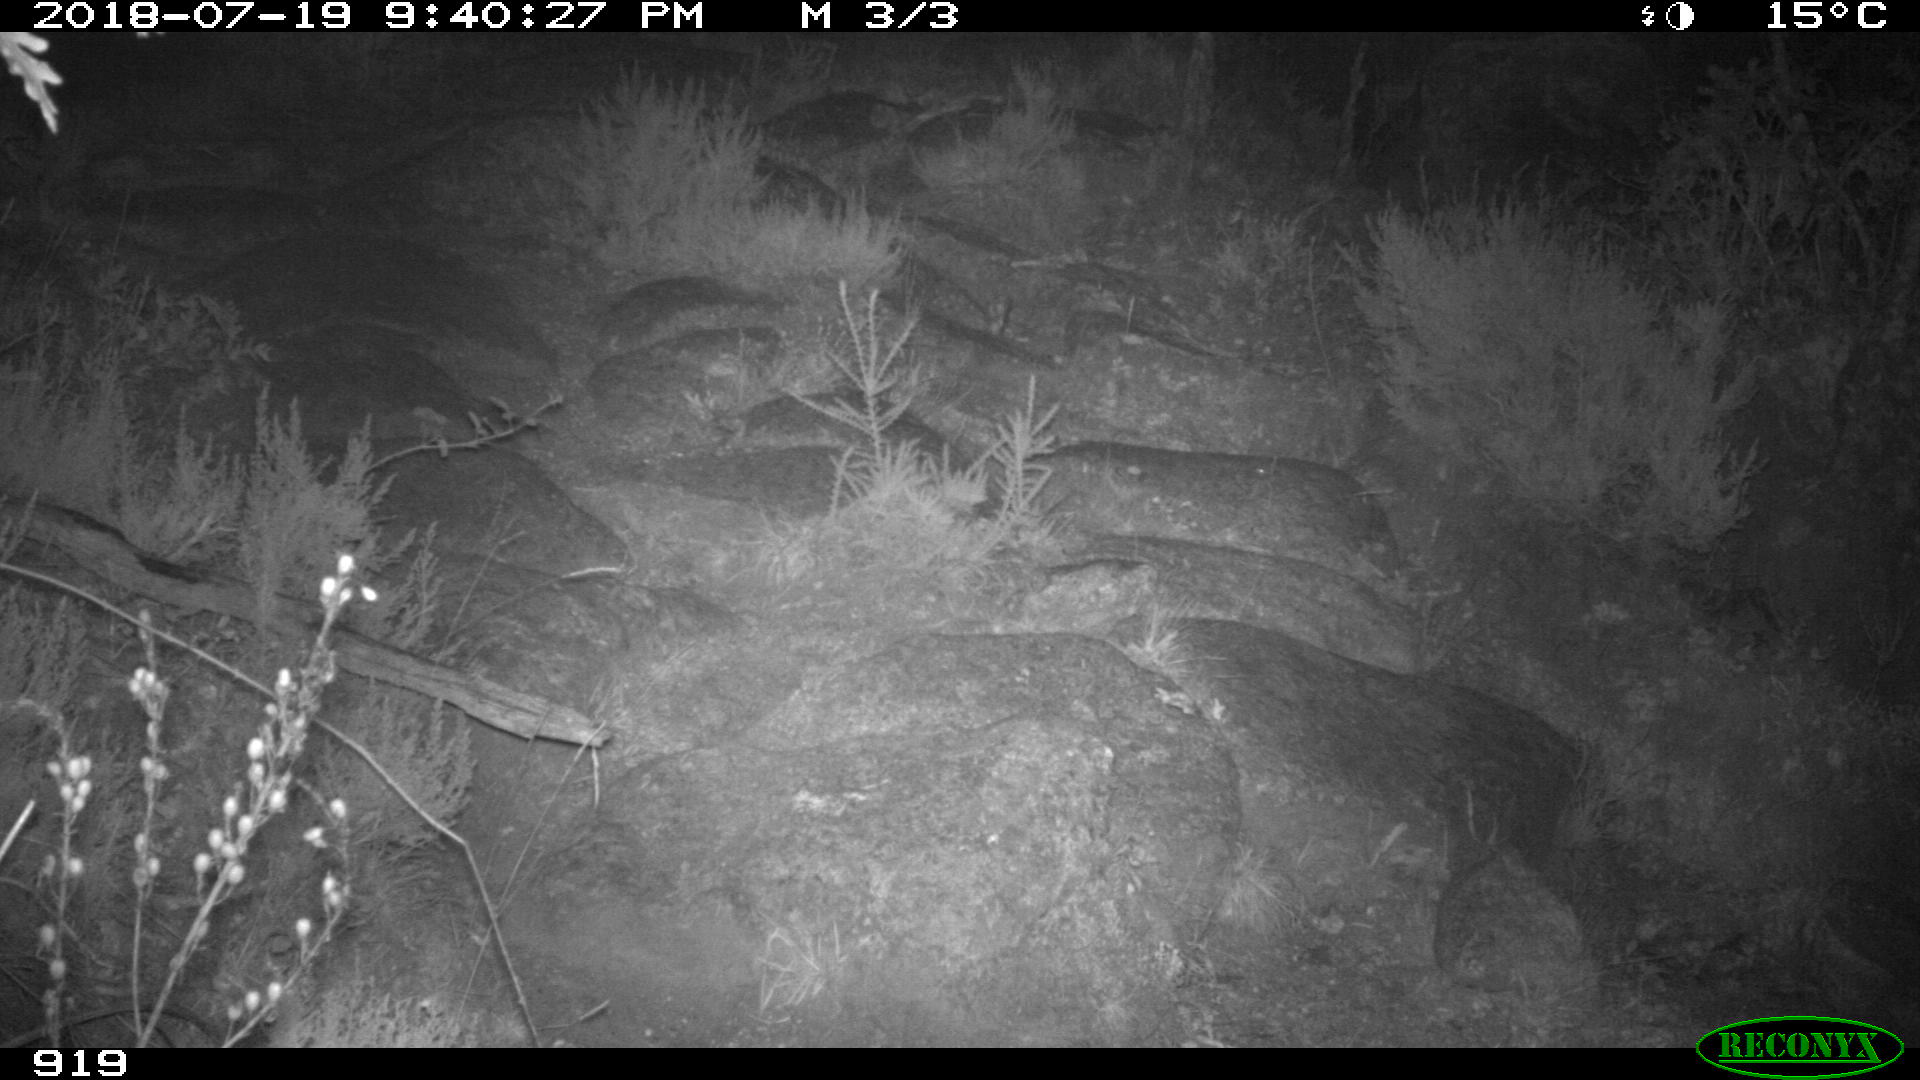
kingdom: Animalia
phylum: Chordata
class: Mammalia
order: Artiodactyla
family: Bovidae
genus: Bos
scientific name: Bos taurus
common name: Domesticated cattle
